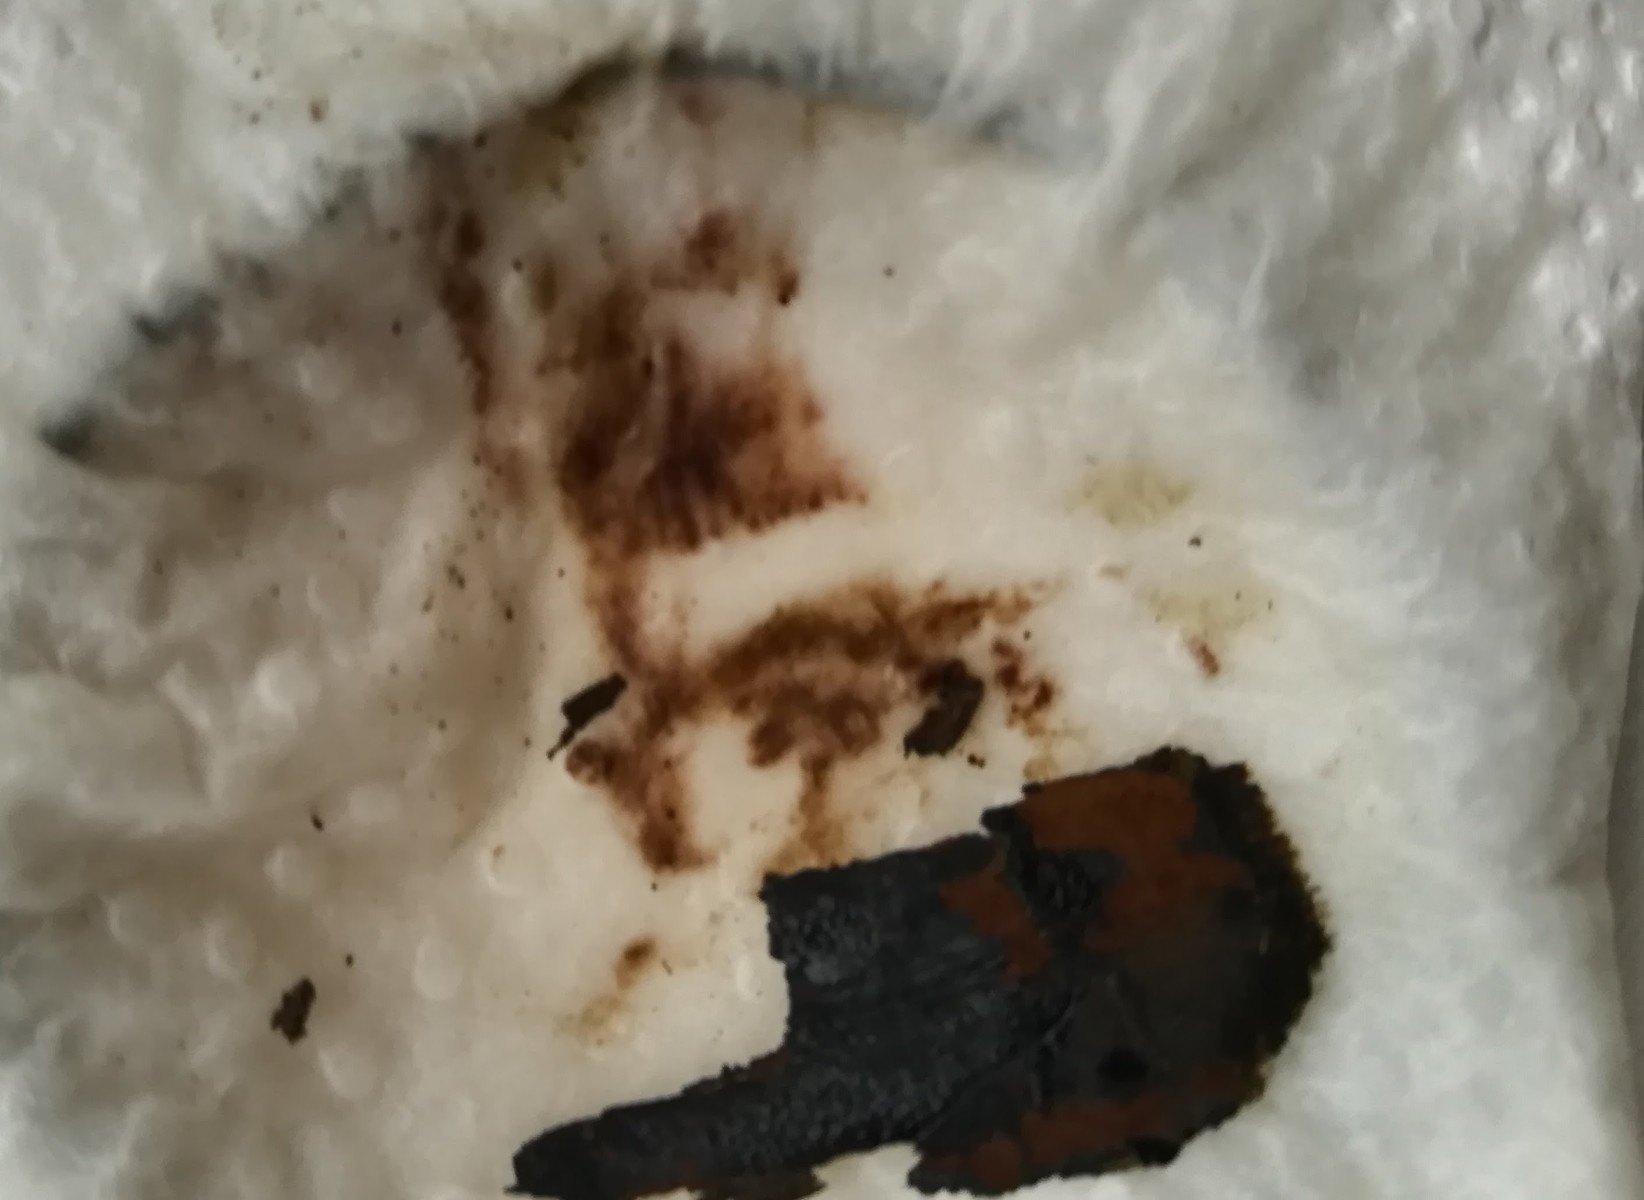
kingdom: Fungi
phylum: Ascomycota
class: Sordariomycetes
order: Xylariales
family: Hypoxylaceae
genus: Hypoxylon
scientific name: Hypoxylon
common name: kulbær
